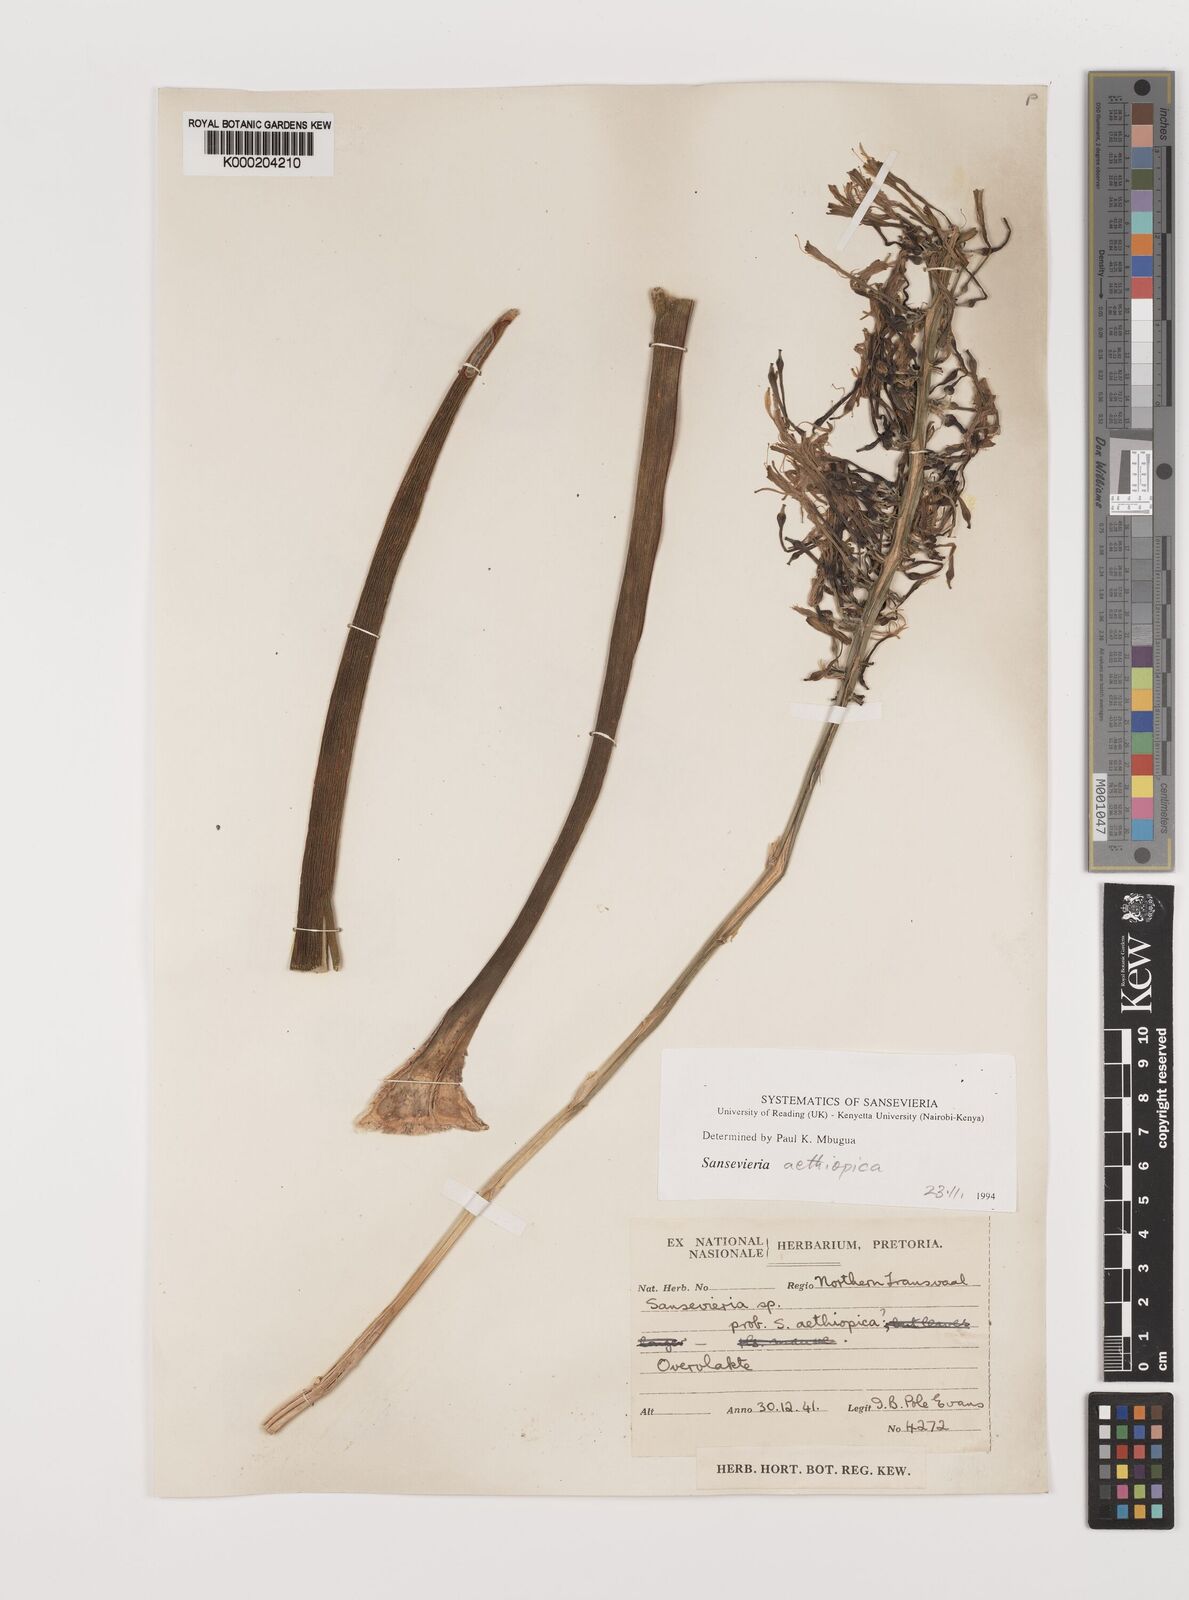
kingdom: Plantae
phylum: Tracheophyta
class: Liliopsida
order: Asparagales
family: Asparagaceae
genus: Dracaena
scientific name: Dracaena aethiopica
